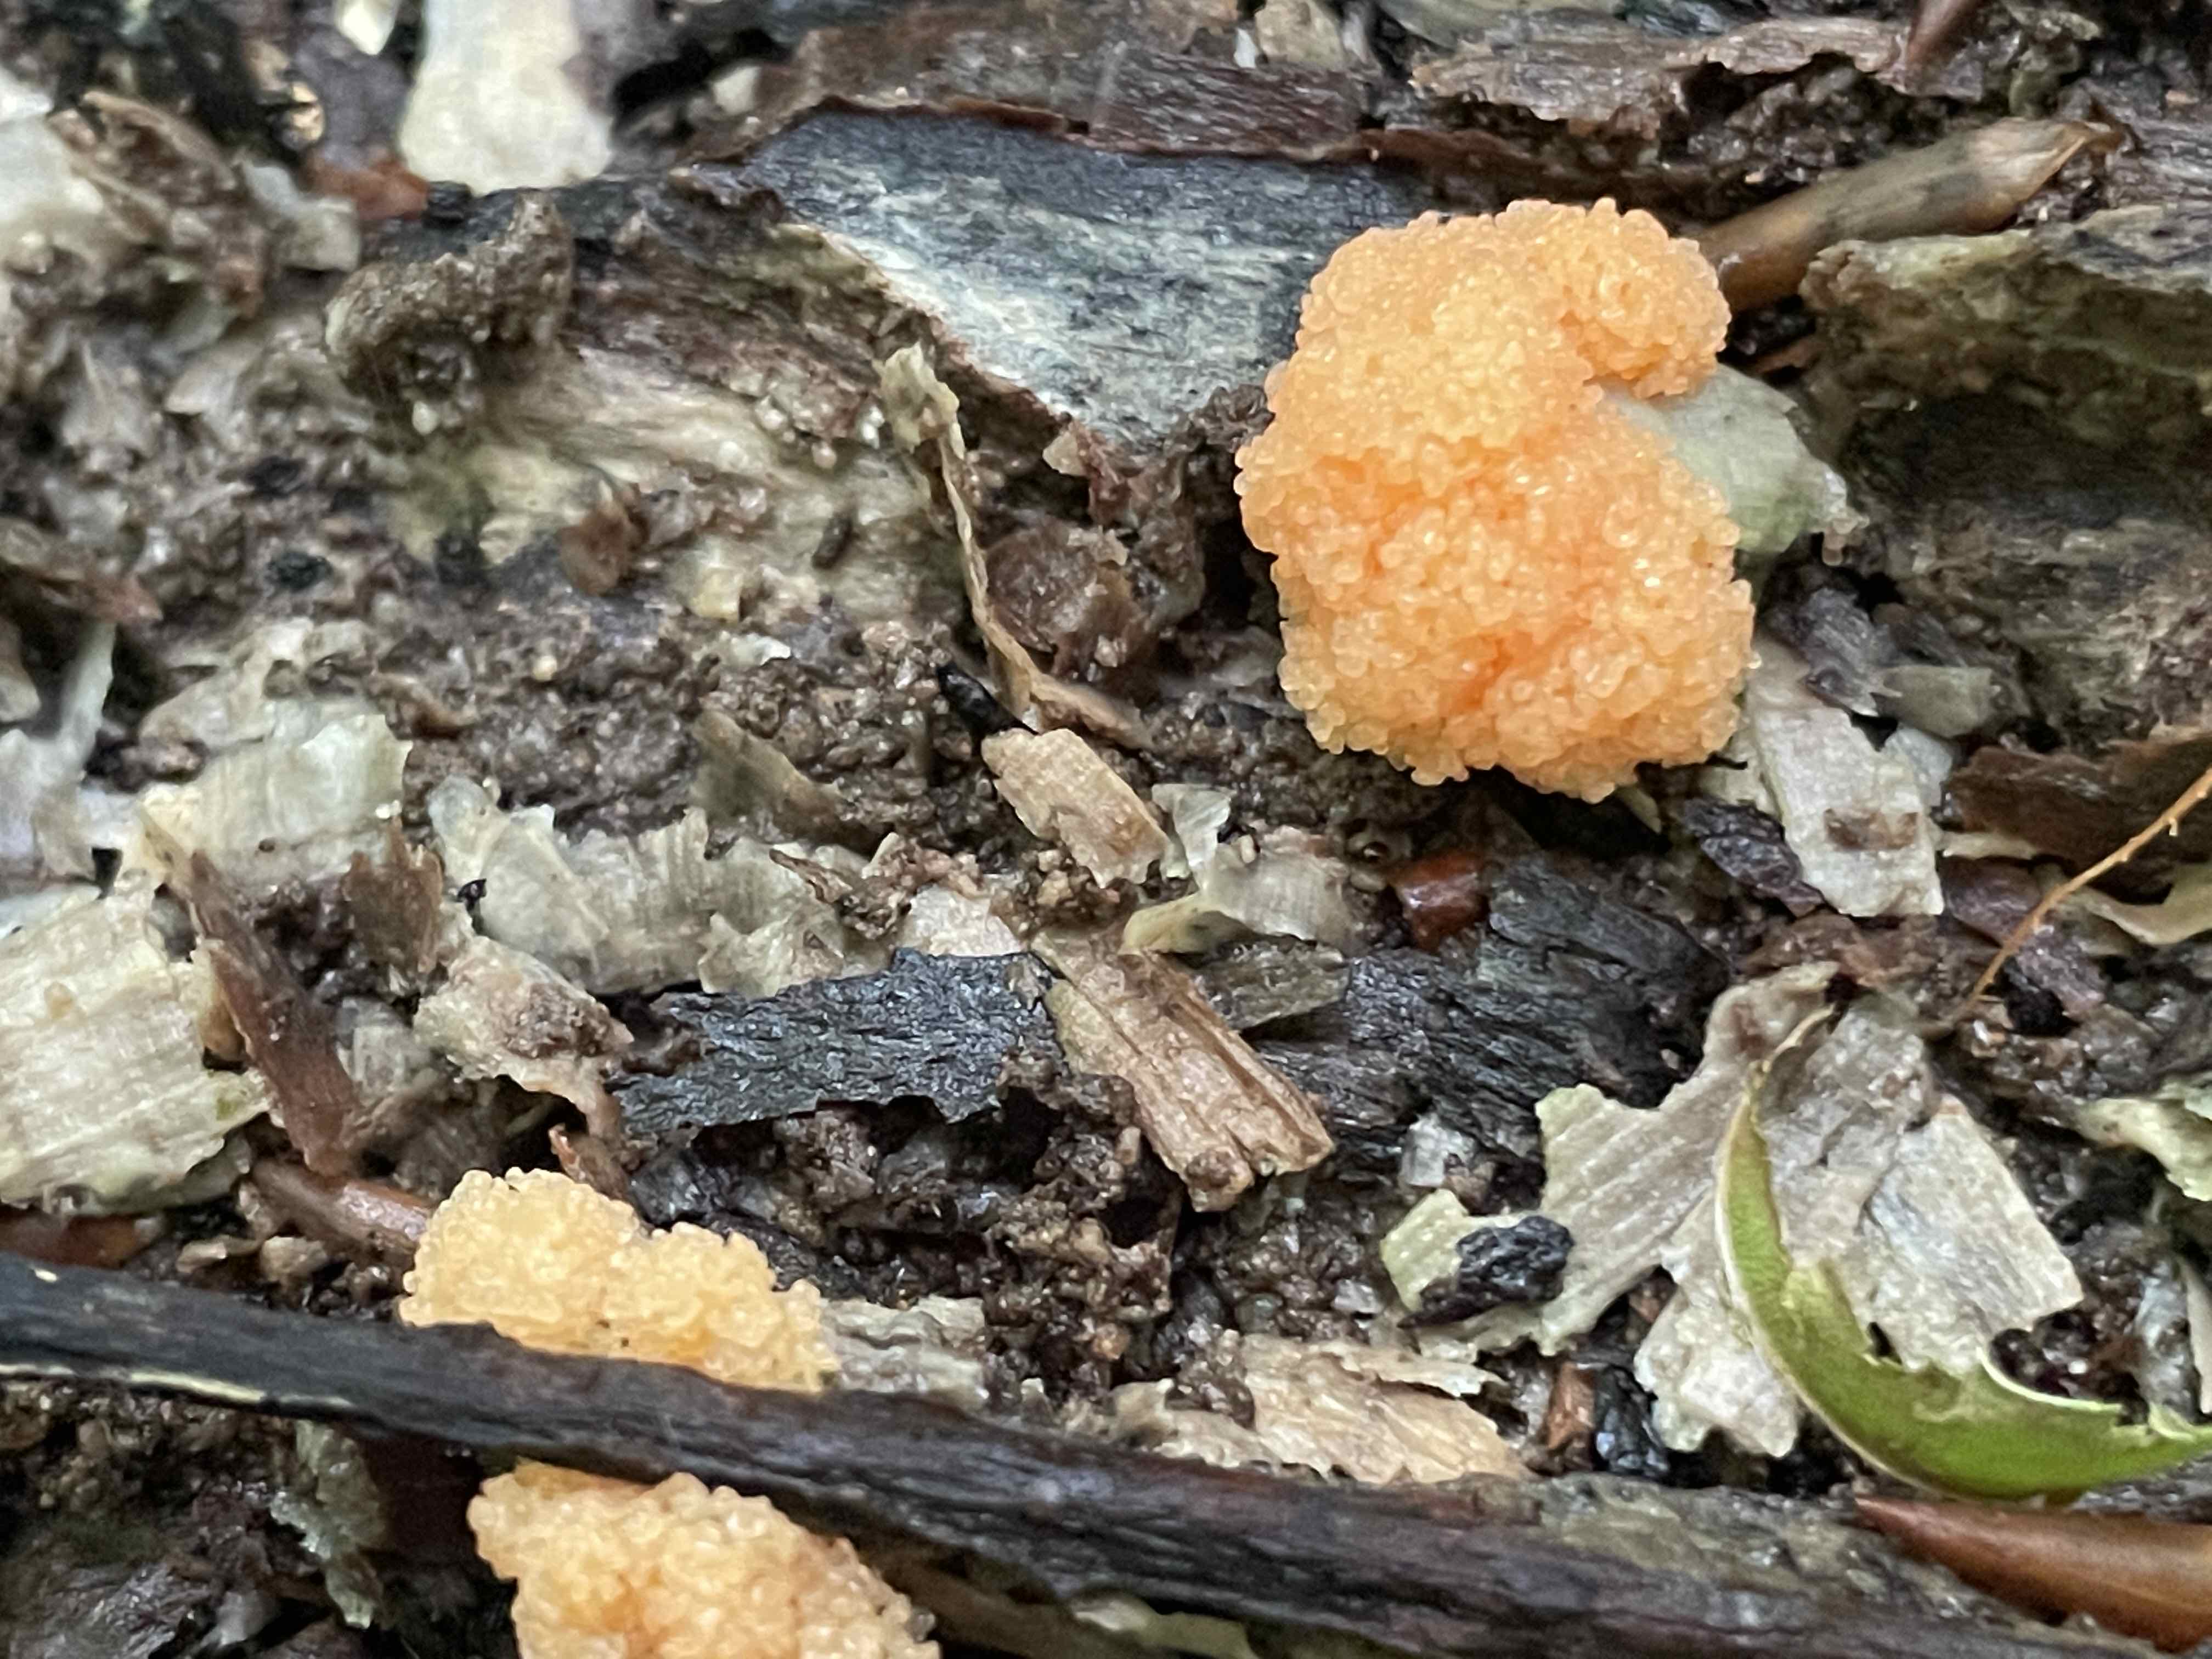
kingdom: Protozoa
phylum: Mycetozoa
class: Myxomycetes
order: Cribrariales
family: Tubiferaceae
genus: Tubifera
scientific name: Tubifera ferruginosa
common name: kanel-støvrør
